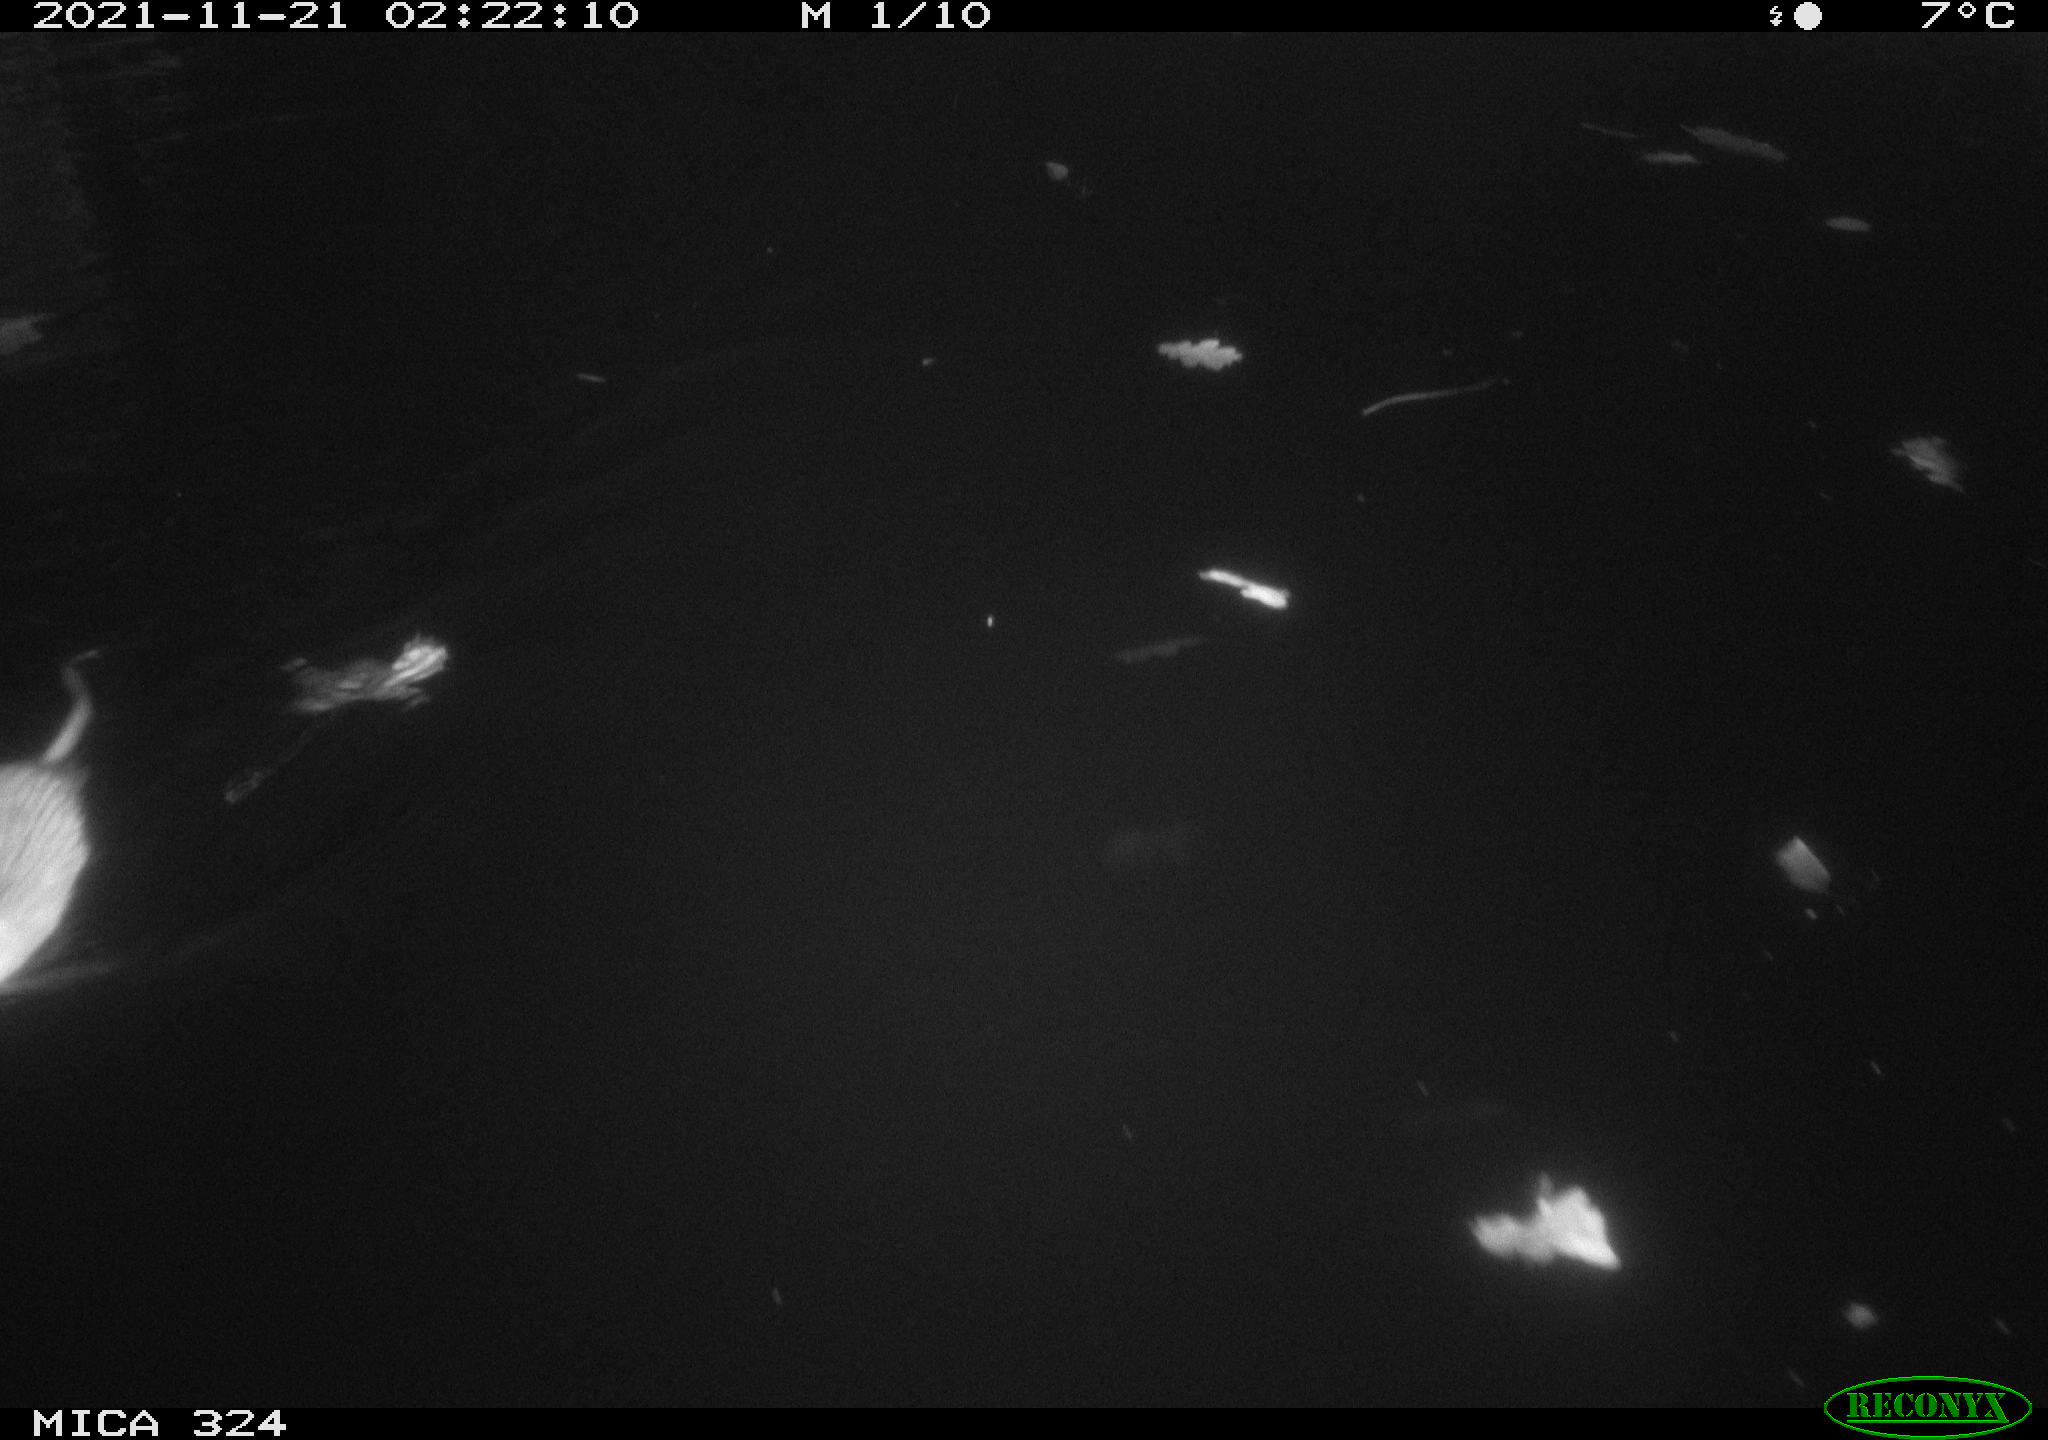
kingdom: Animalia
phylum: Chordata
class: Mammalia
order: Rodentia
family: Cricetidae
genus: Ondatra
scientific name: Ondatra zibethicus
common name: Muskrat
